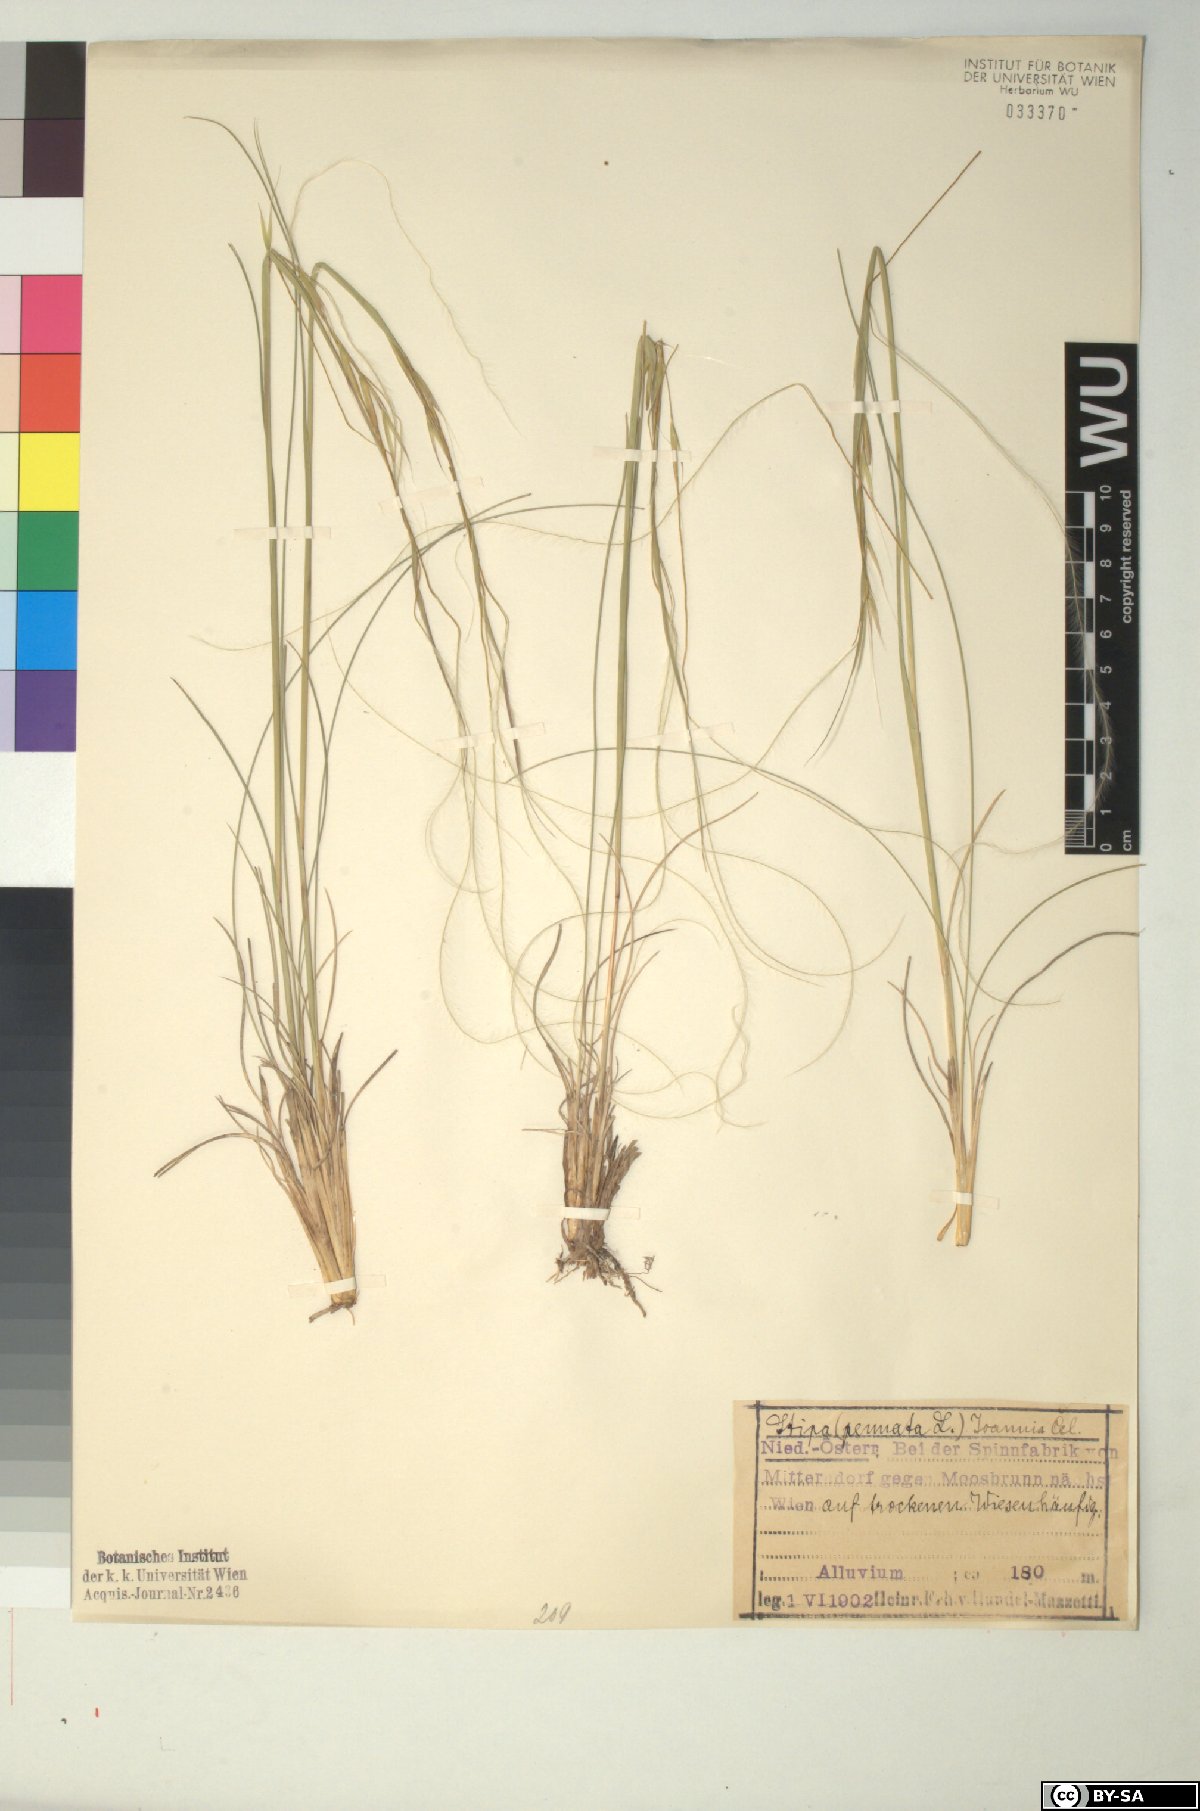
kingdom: Plantae
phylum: Tracheophyta
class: Liliopsida
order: Poales
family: Poaceae
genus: Stipa
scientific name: Stipa pennata
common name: European feather grass
